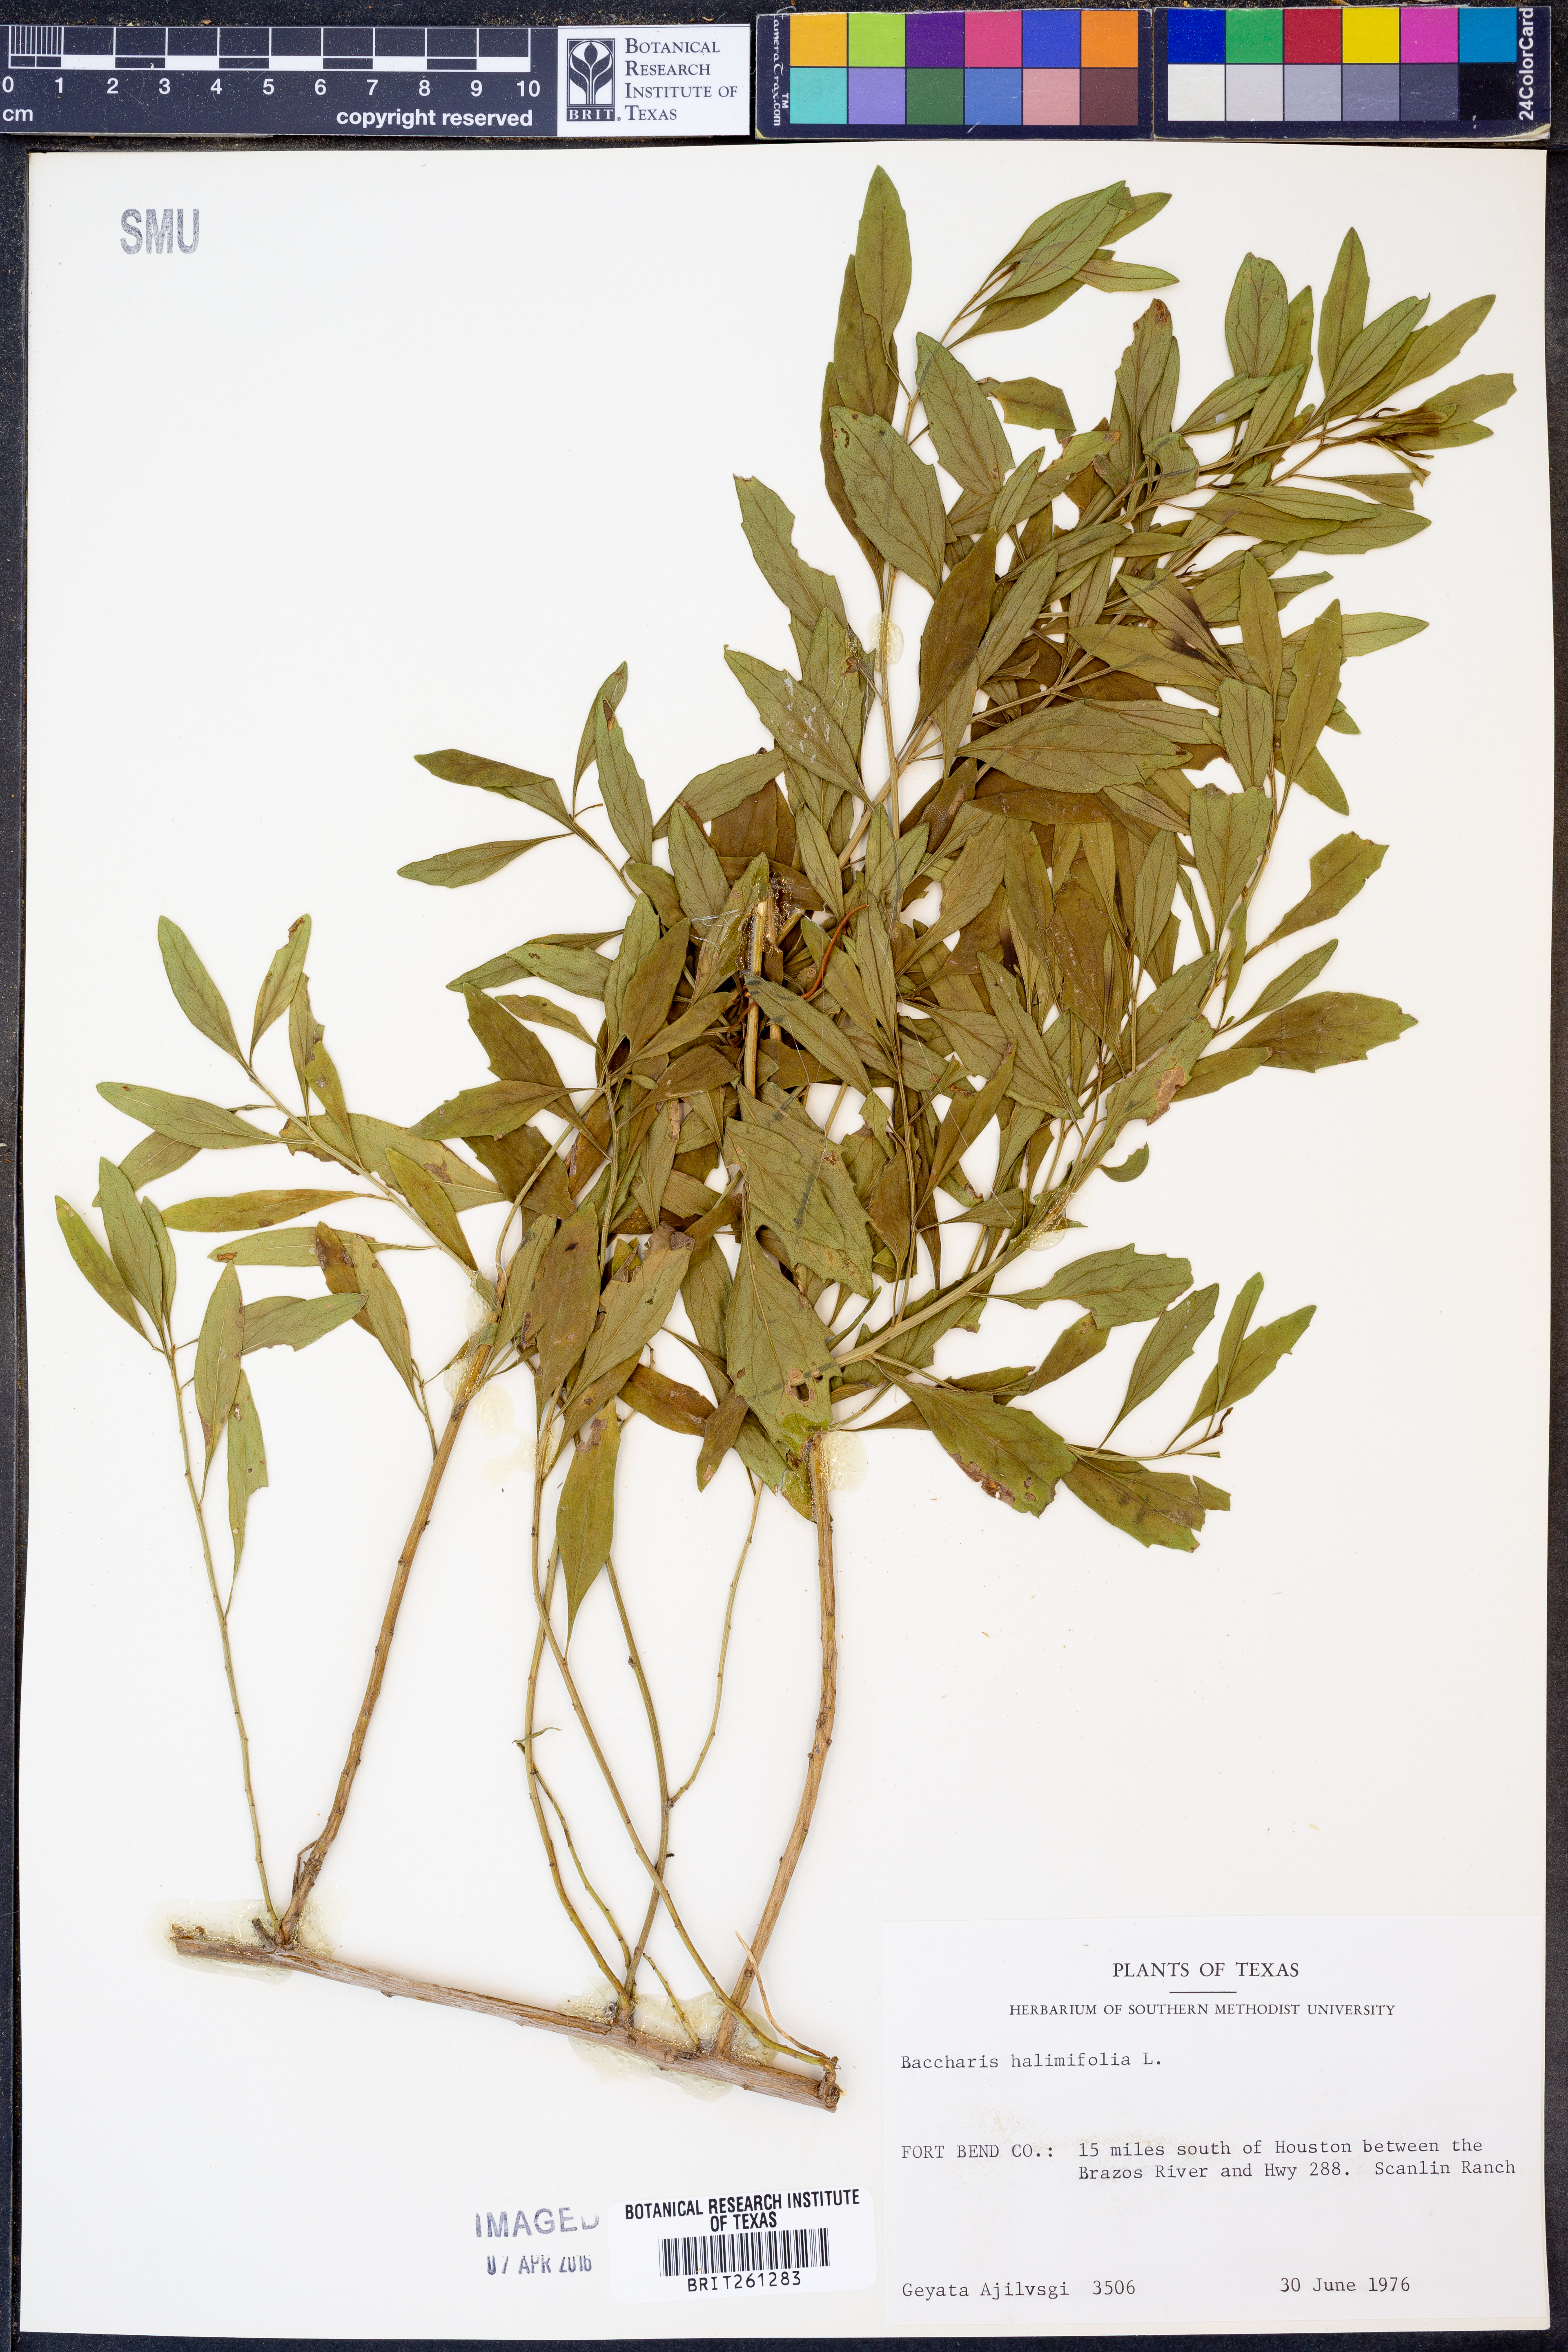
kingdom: Plantae
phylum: Tracheophyta
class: Magnoliopsida
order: Asterales
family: Asteraceae
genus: Nidorella
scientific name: Nidorella ivifolia
